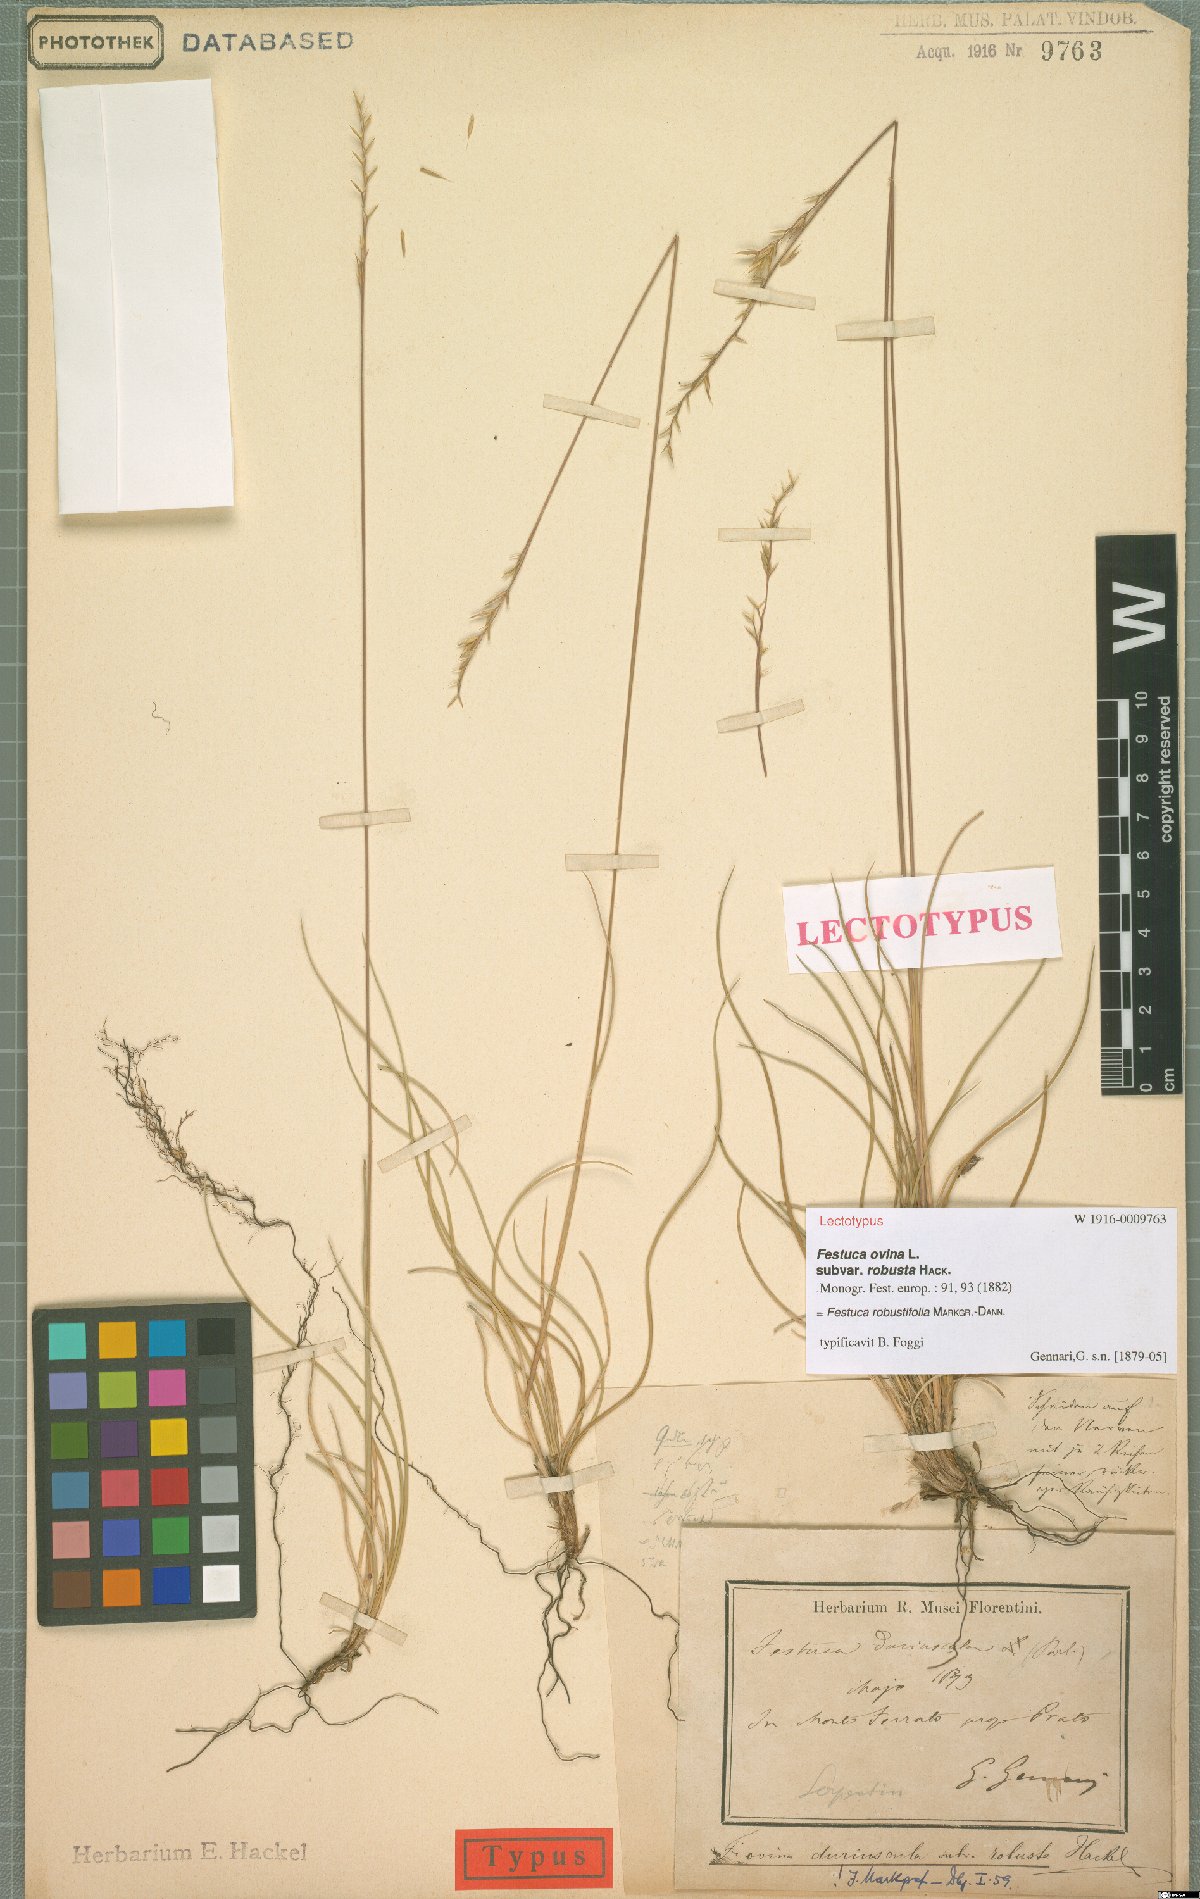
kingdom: Plantae
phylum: Tracheophyta
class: Liliopsida
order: Poales
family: Poaceae
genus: Festuca
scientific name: Festuca robustifolia
